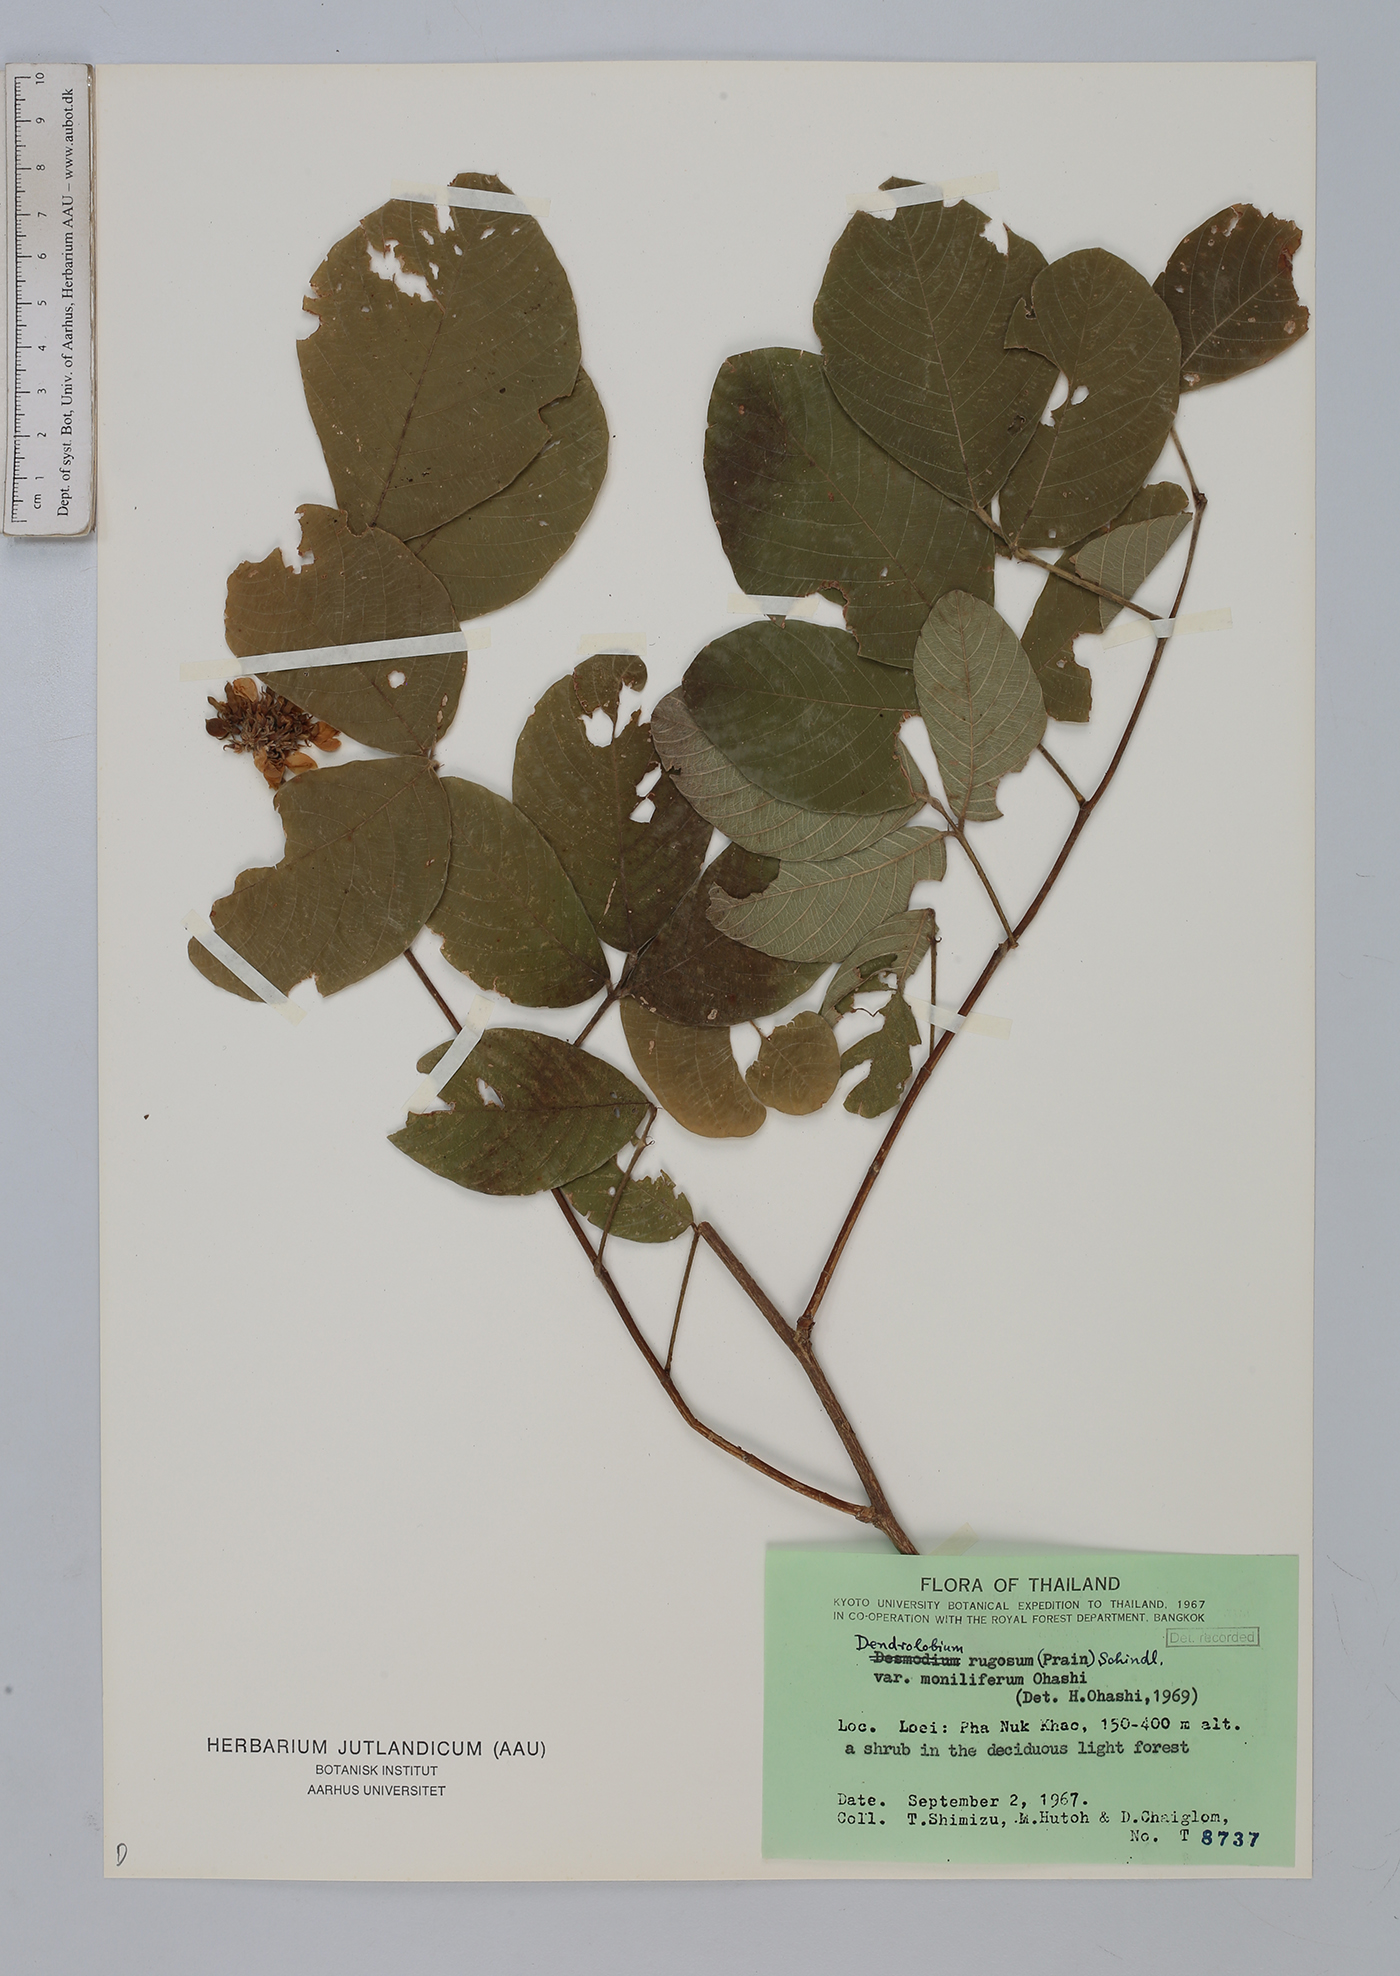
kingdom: Plantae
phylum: Tracheophyta
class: Magnoliopsida
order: Fabales
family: Fabaceae
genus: Dendrolobium
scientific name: Dendrolobium rugosum
